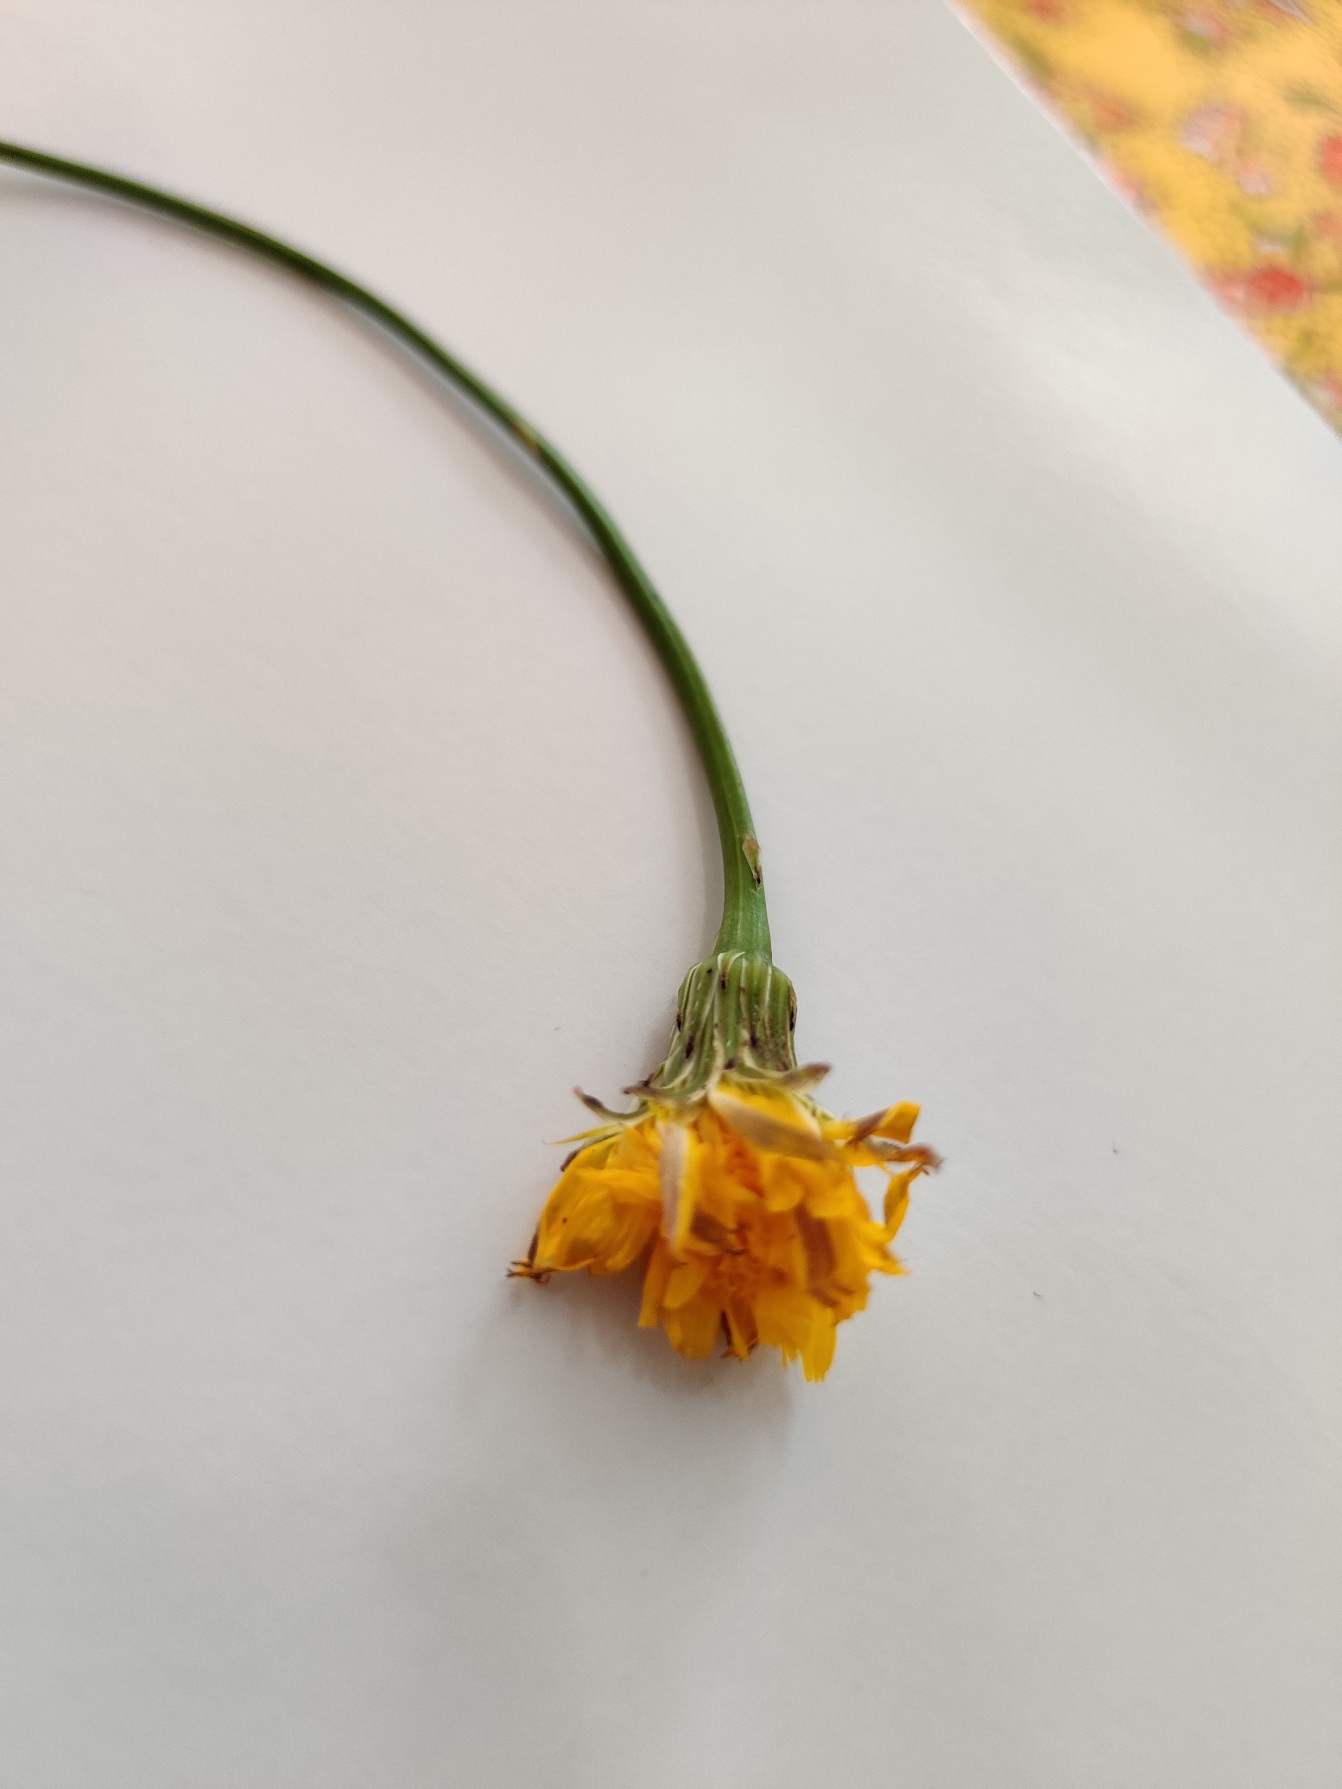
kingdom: Plantae
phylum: Tracheophyta
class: Magnoliopsida
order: Asterales
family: Asteraceae
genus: Hypochaeris
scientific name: Hypochaeris radicata
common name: Almindelig kongepen
